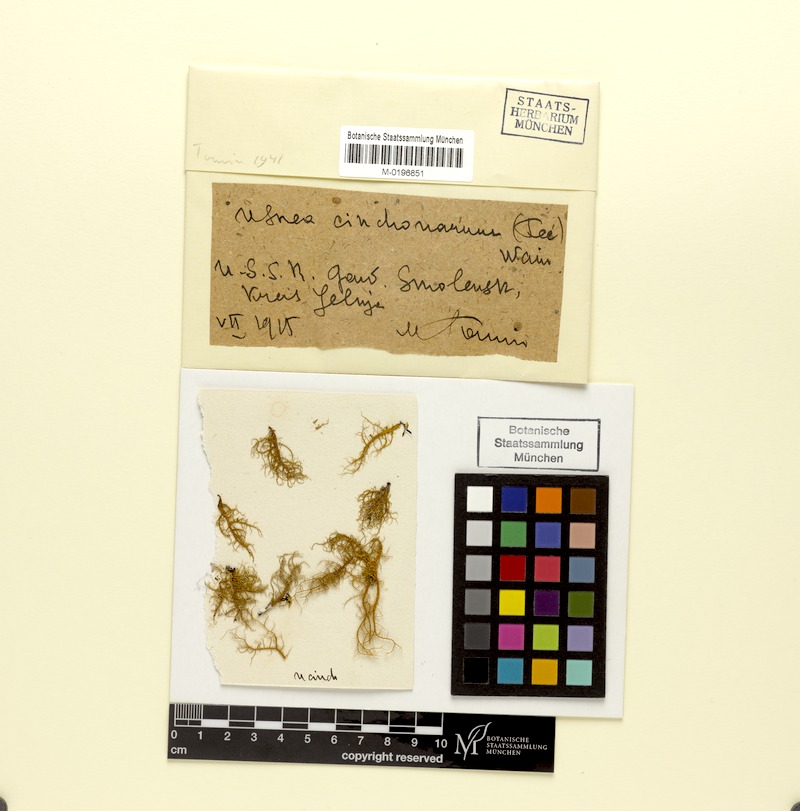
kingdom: Fungi
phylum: Ascomycota
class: Lecanoromycetes
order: Lecanorales
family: Parmeliaceae
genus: Usnea
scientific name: Usnea cinchonae
